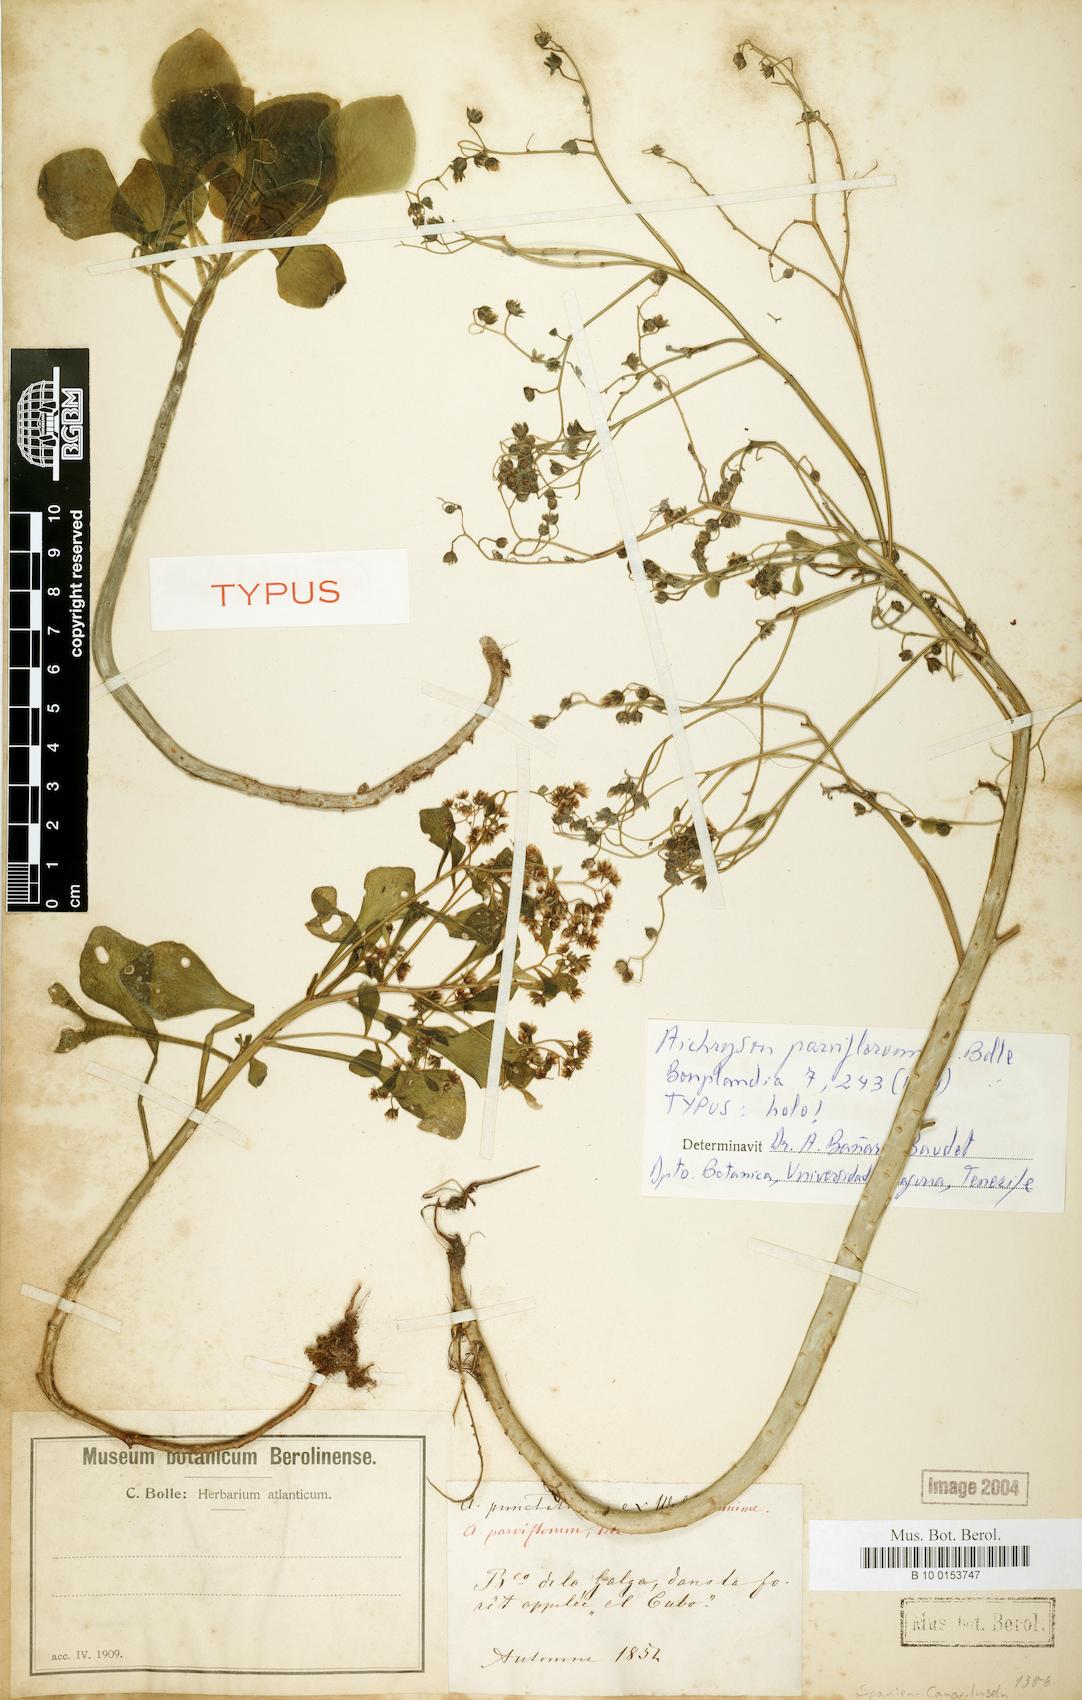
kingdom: Plantae
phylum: Tracheophyta
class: Magnoliopsida
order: Saxifragales
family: Crassulaceae
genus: Aichryson
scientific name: Aichryson pachycaulon
